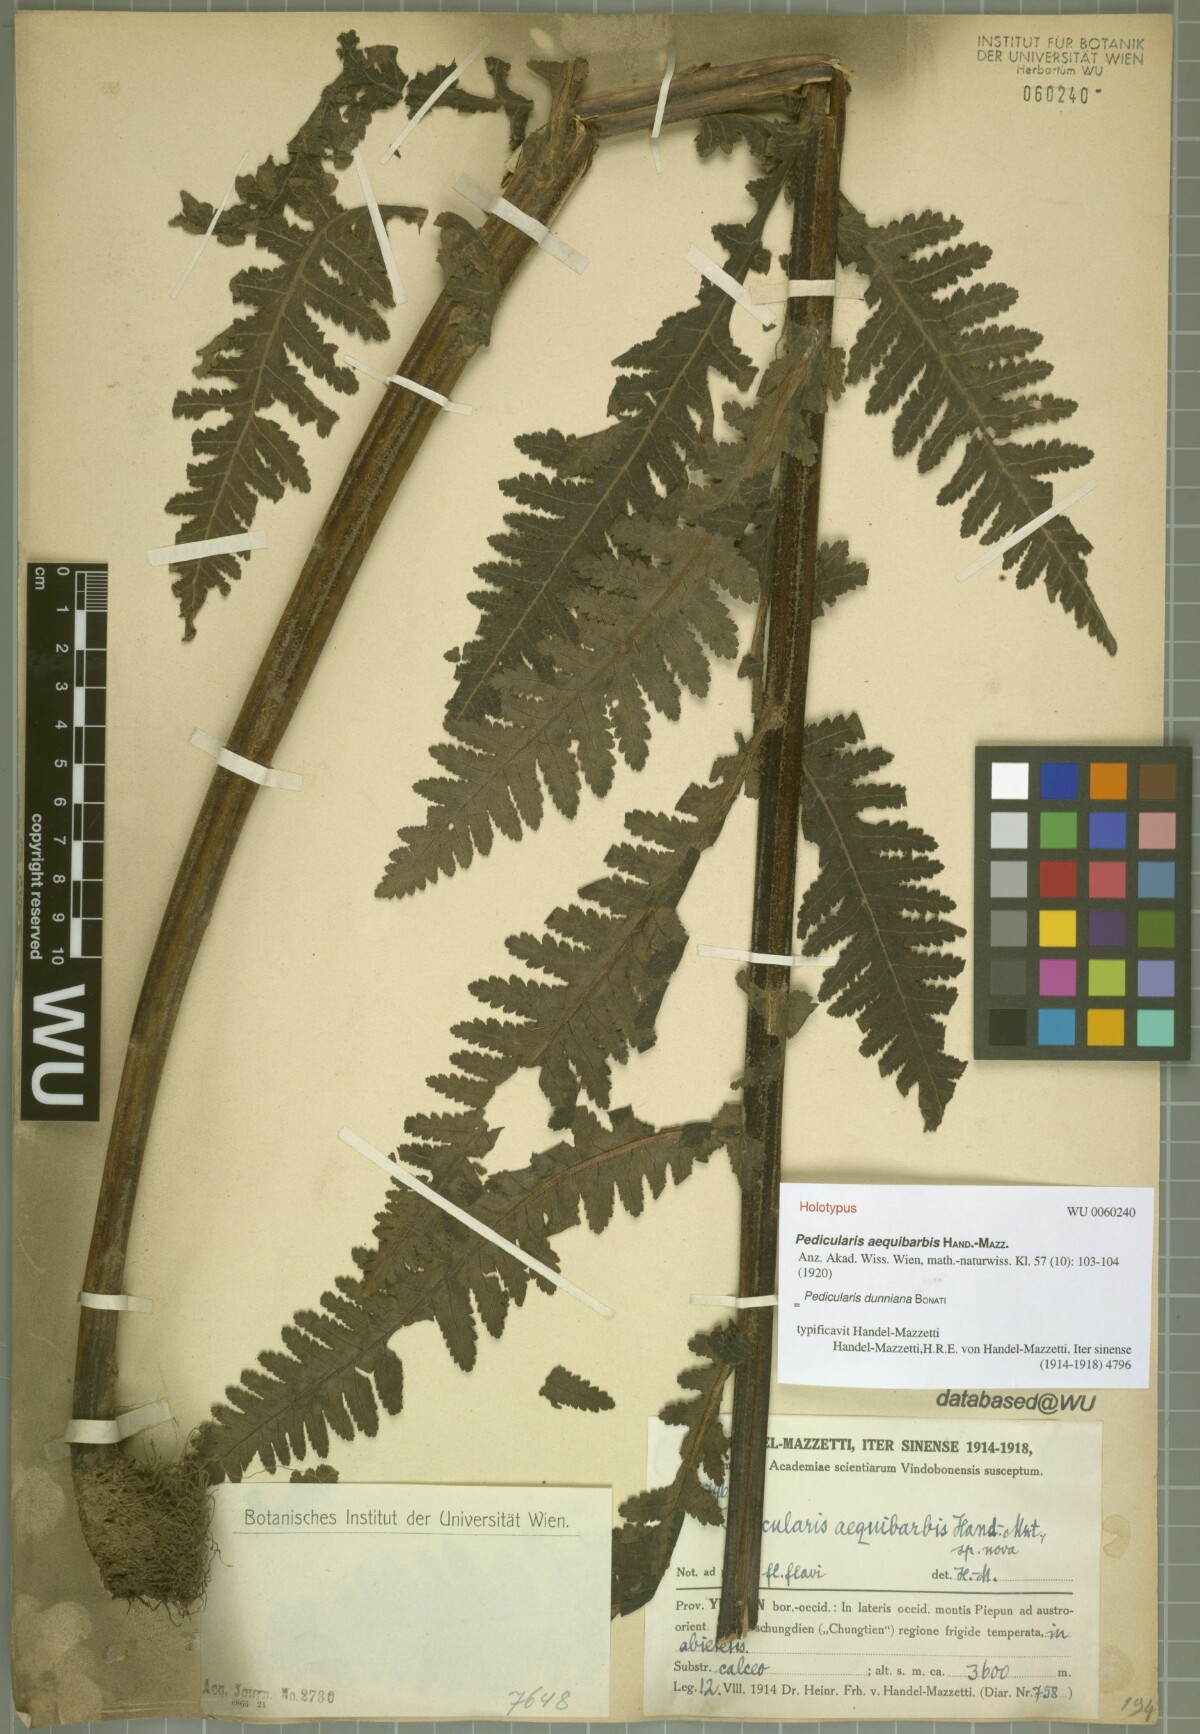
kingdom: Plantae
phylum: Tracheophyta
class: Magnoliopsida
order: Lamiales
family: Orobanchaceae
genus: Pedicularis
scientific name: Pedicularis dunniana
